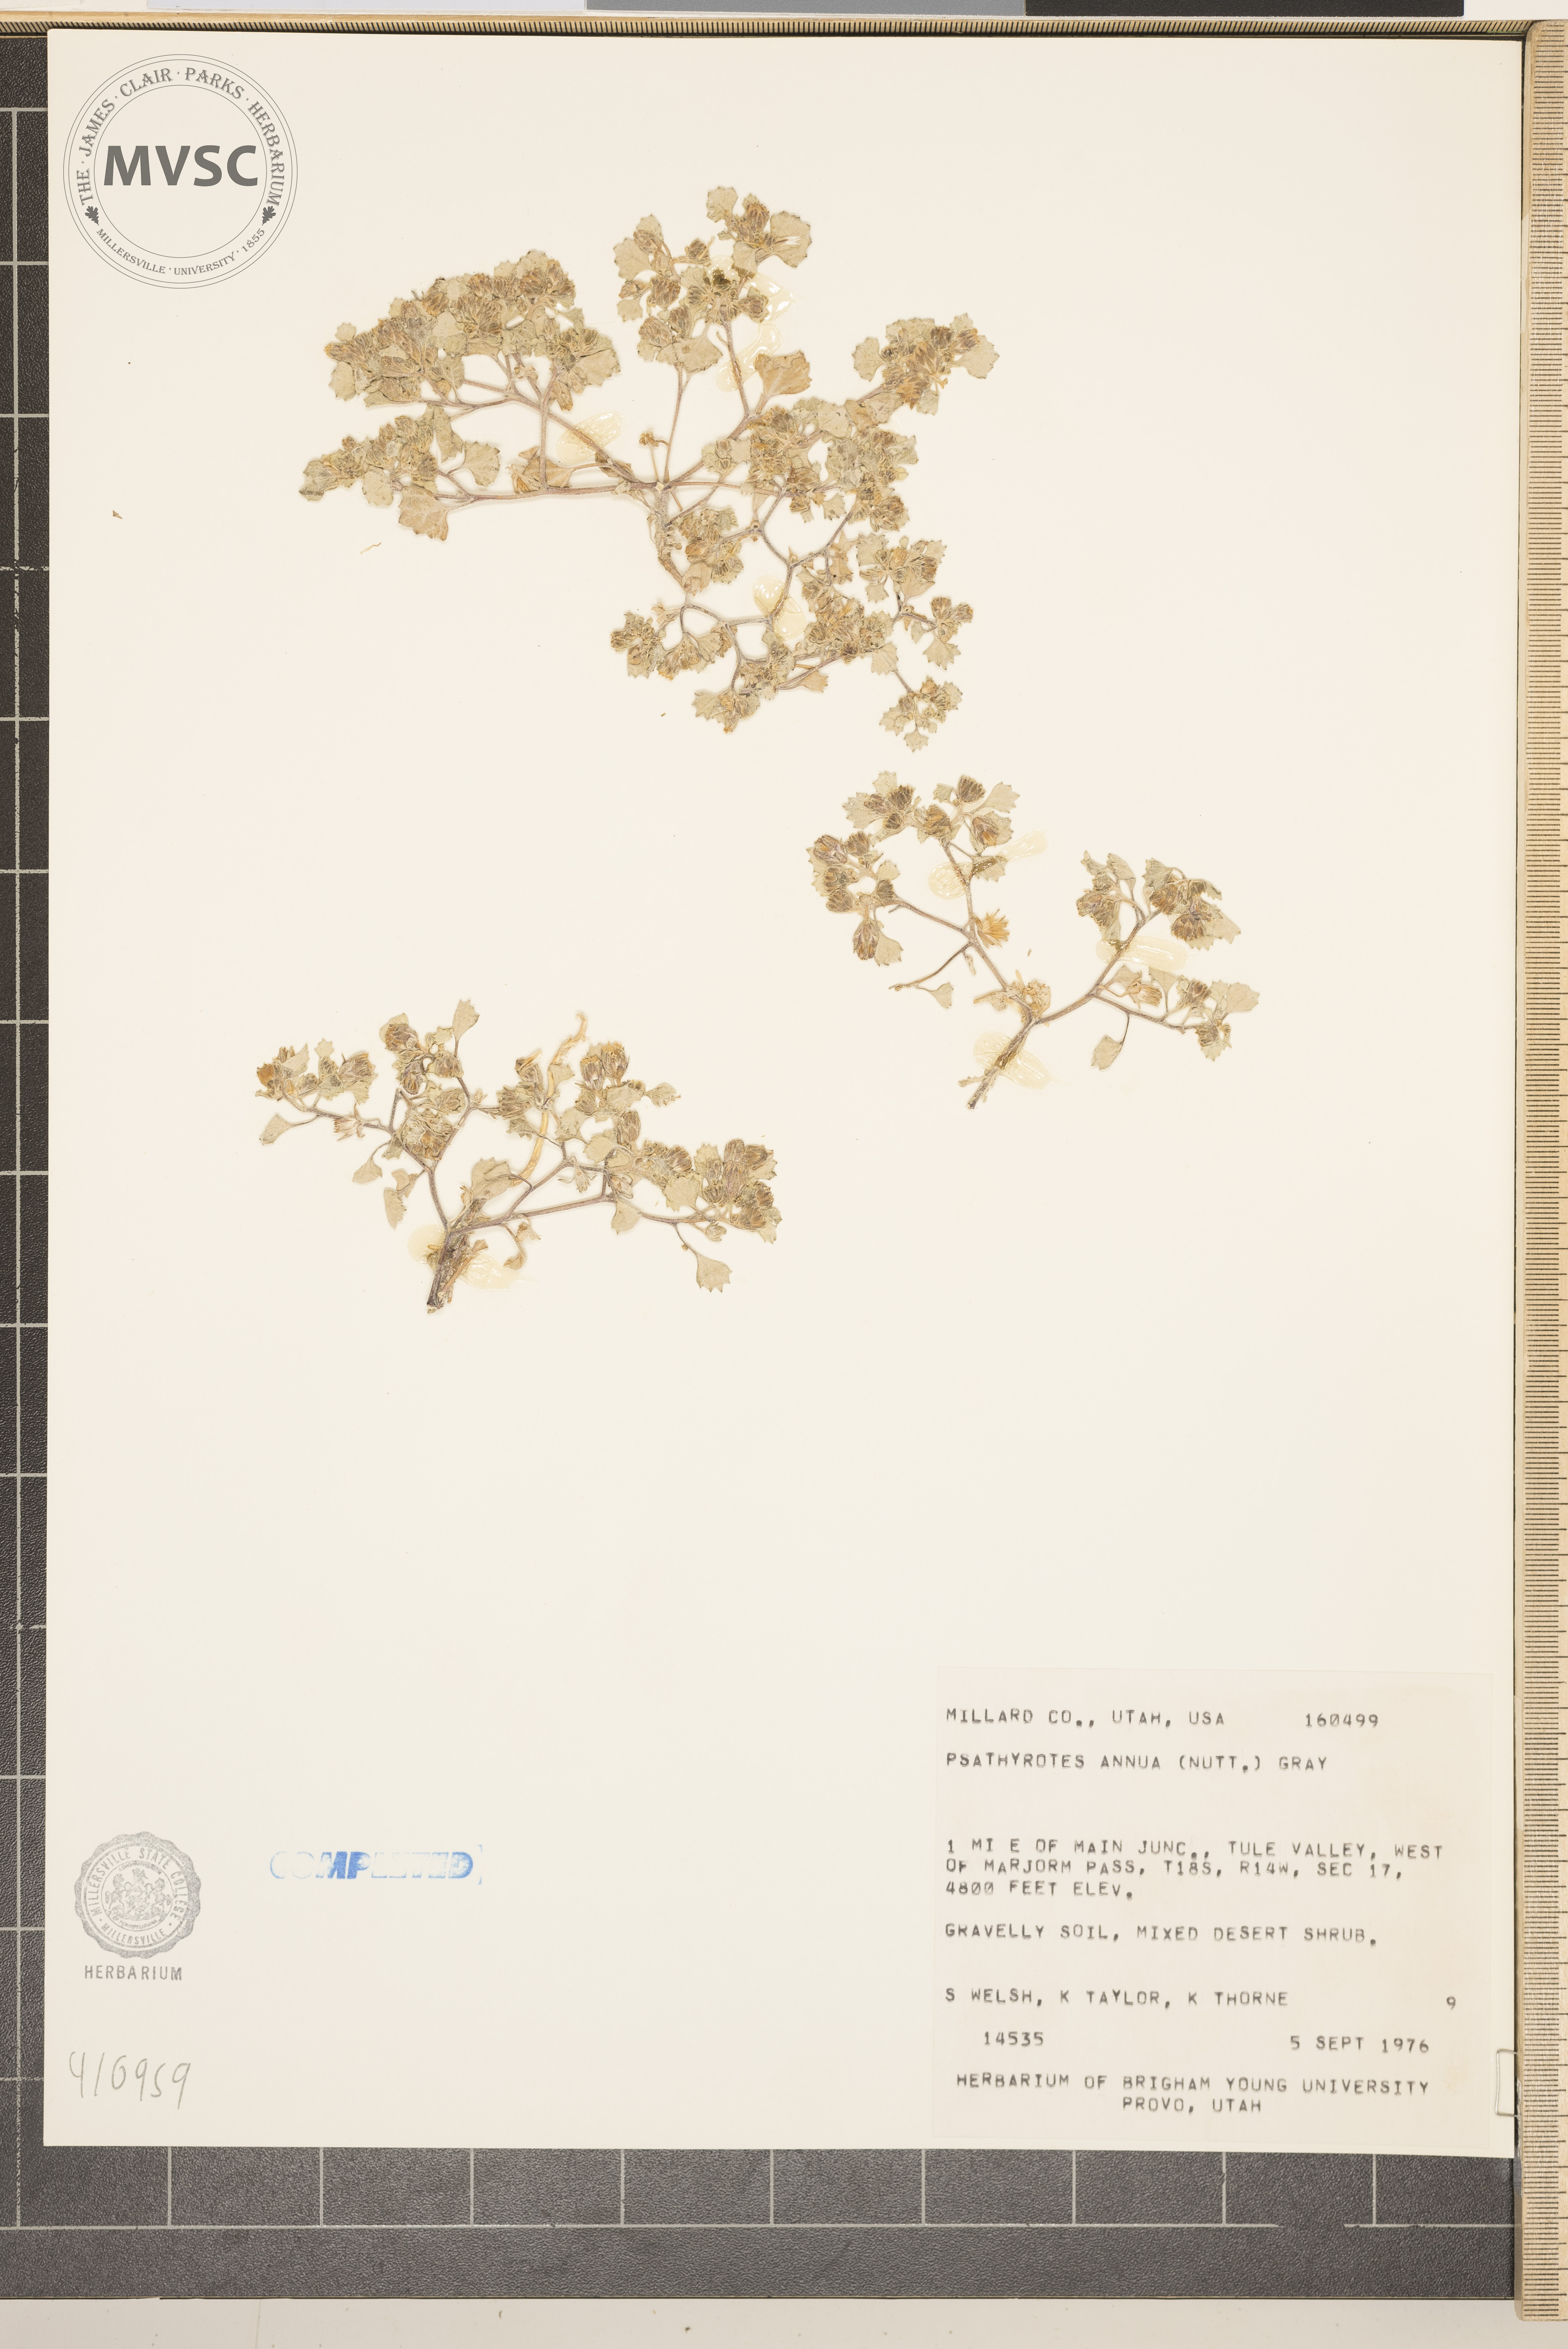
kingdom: Plantae
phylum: Tracheophyta
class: Magnoliopsida
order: Asterales
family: Asteraceae
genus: Psathyrotes
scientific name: Psathyrotes annua
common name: Mealy rosettes
